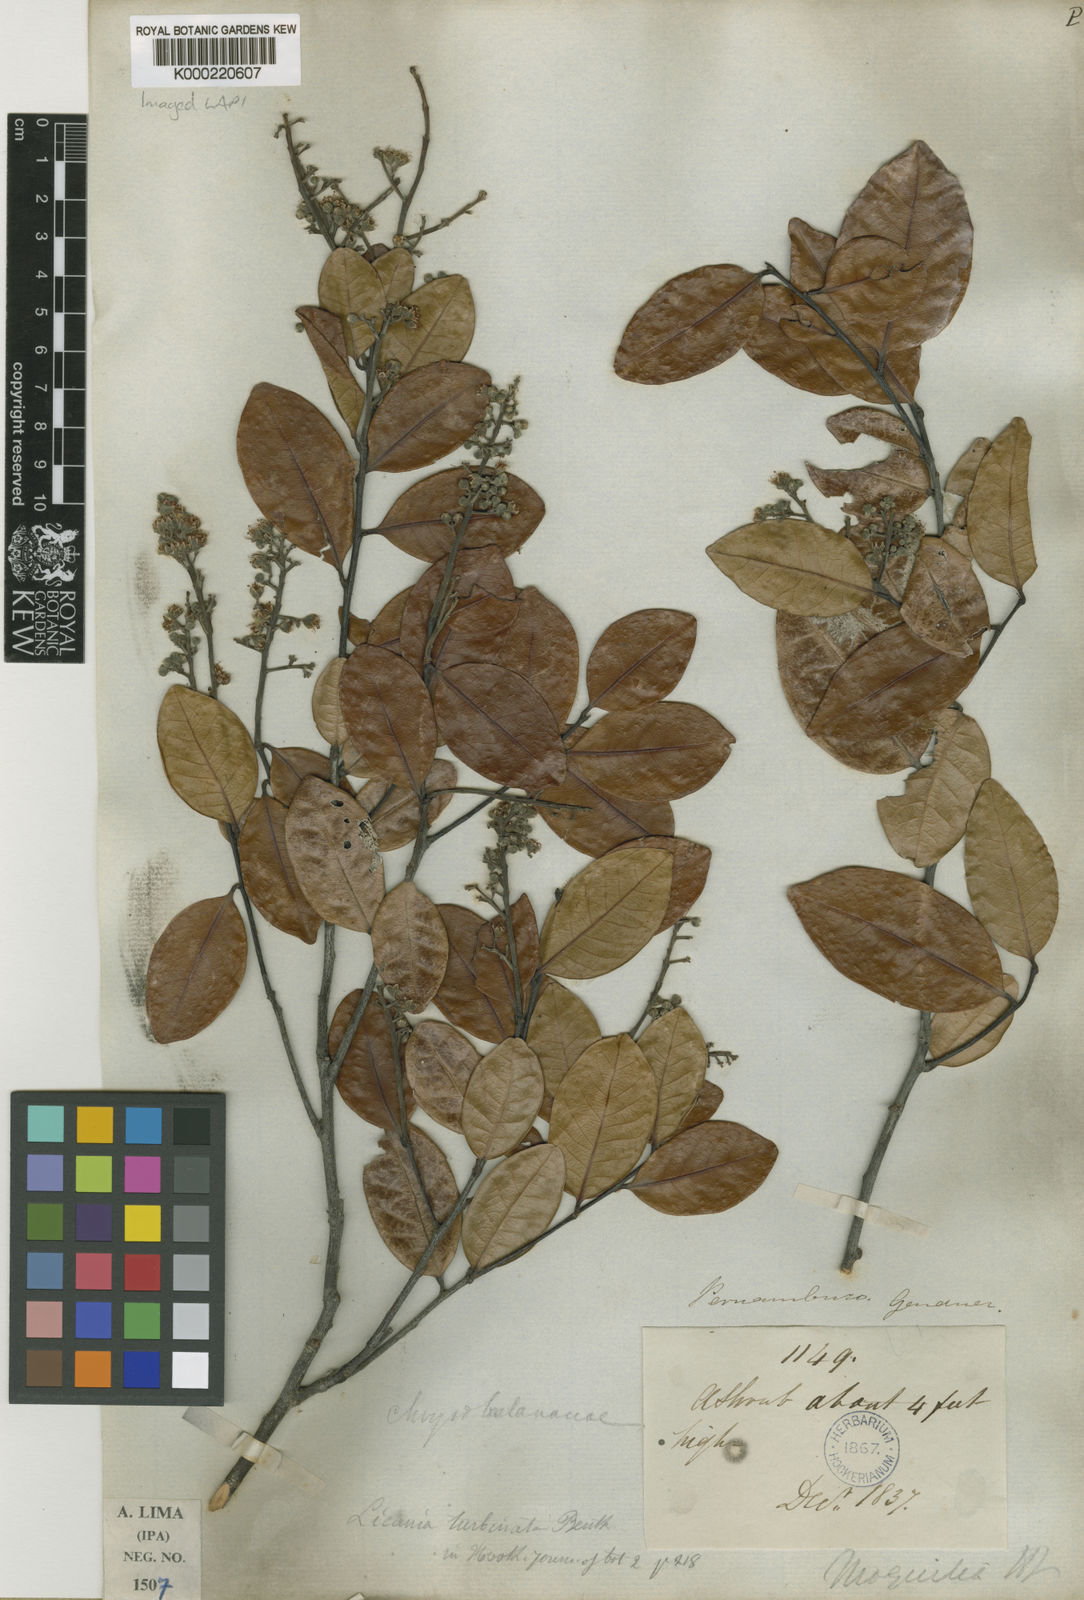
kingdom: Plantae
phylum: Tracheophyta
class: Magnoliopsida
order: Malpighiales
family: Chrysobalanaceae
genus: Leptobalanus
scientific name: Leptobalanus turbinatus
